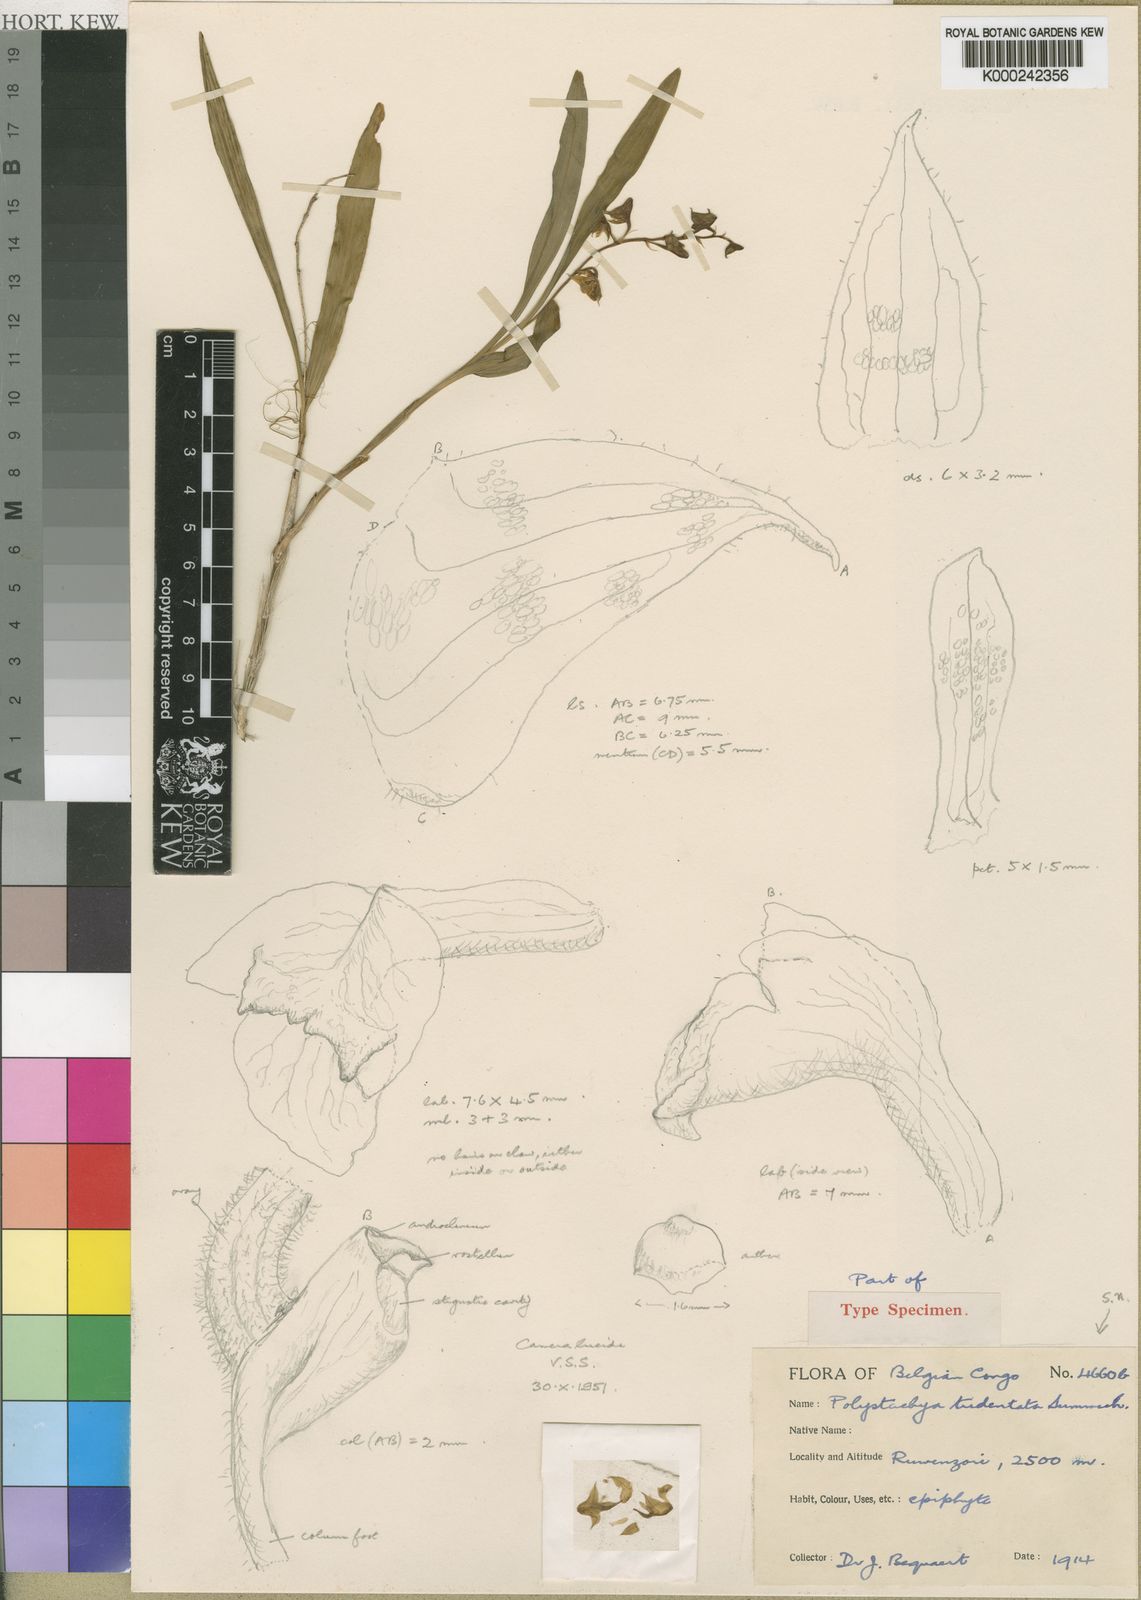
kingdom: Plantae
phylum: Tracheophyta
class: Liliopsida
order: Asparagales
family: Orchidaceae
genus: Polystachya
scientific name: Polystachya tridentata
